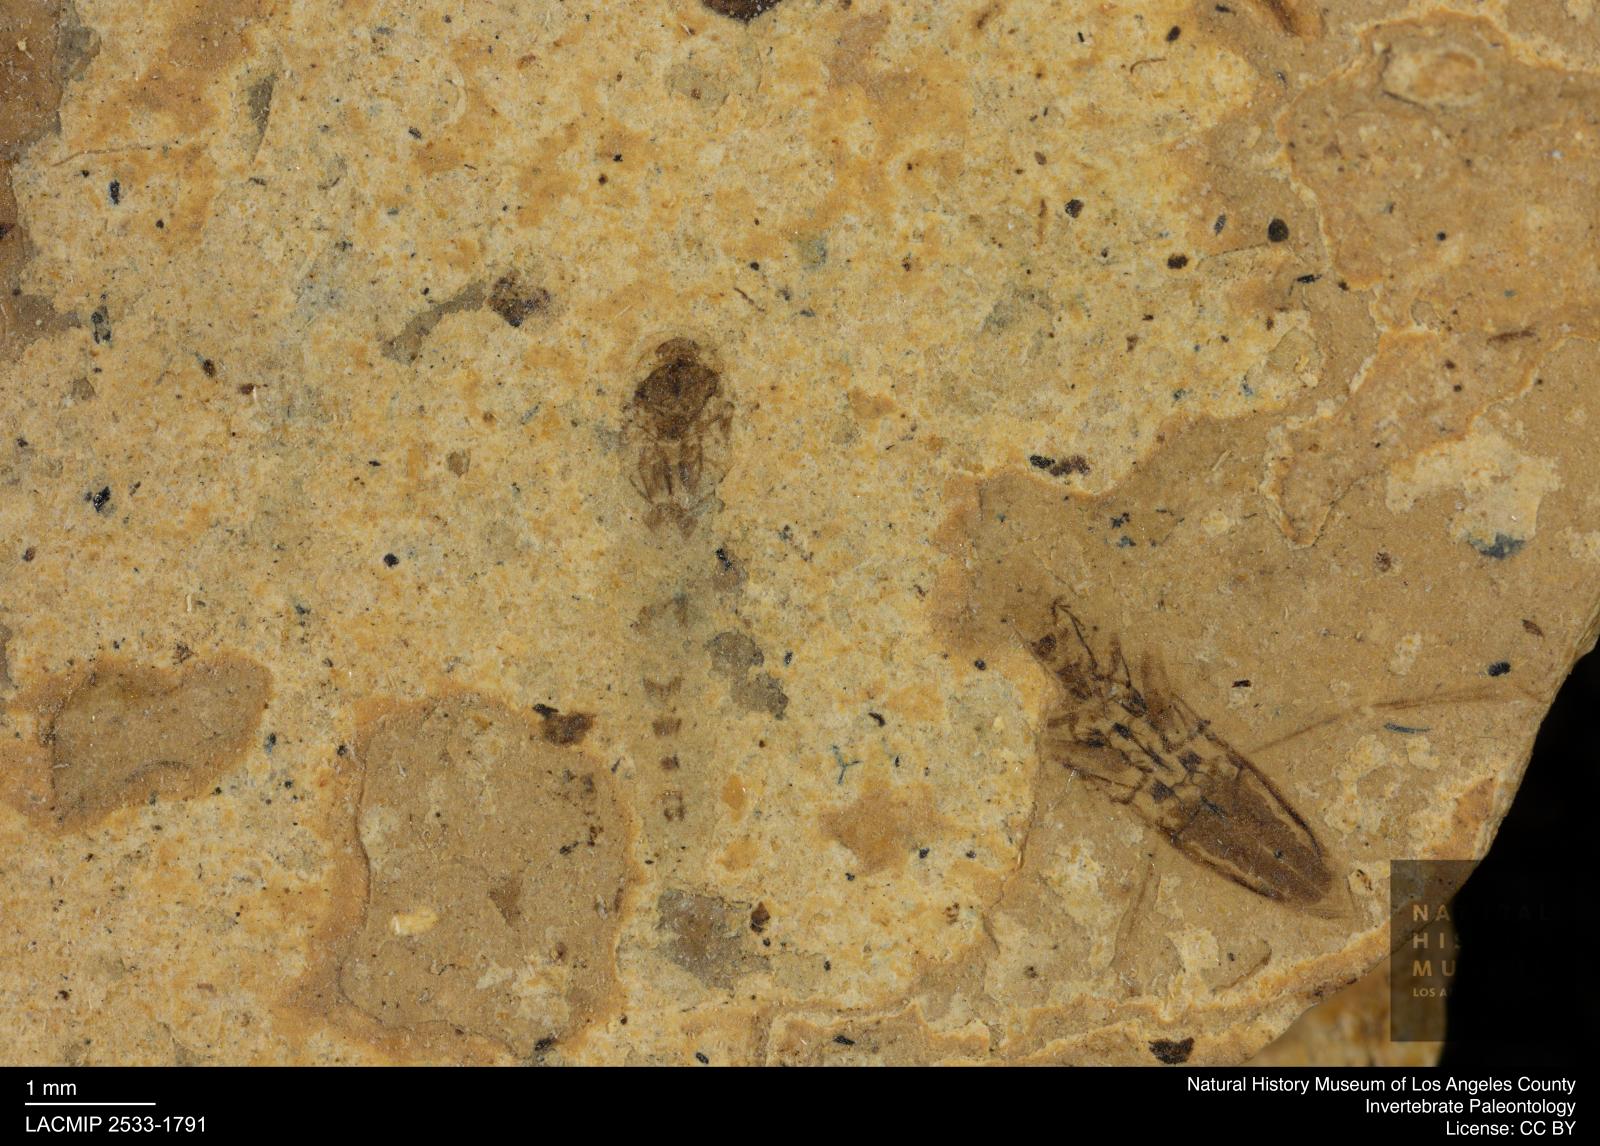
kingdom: Animalia
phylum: Arthropoda
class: Insecta
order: Diptera
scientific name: Diptera
